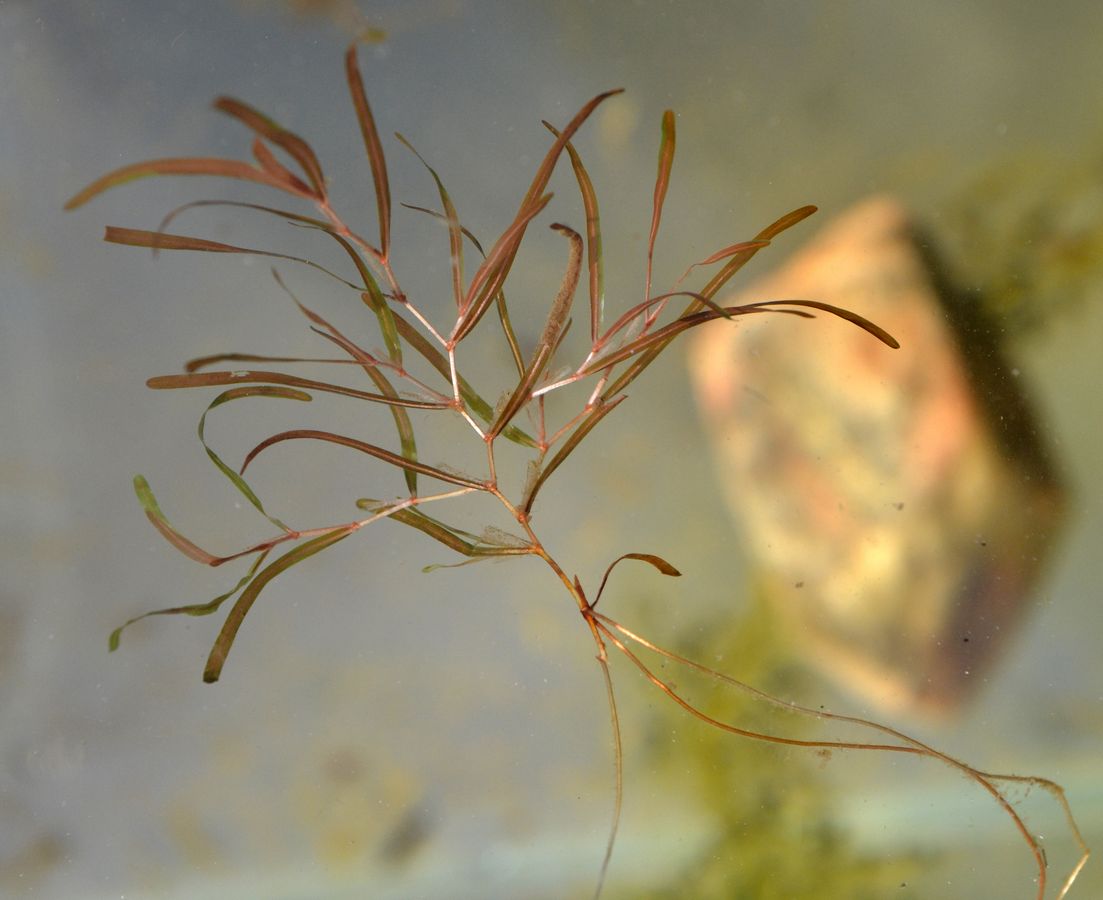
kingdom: Plantae
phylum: Tracheophyta
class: Liliopsida
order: Alismatales
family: Potamogetonaceae
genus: Potamogeton
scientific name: Potamogeton berchtoldii
